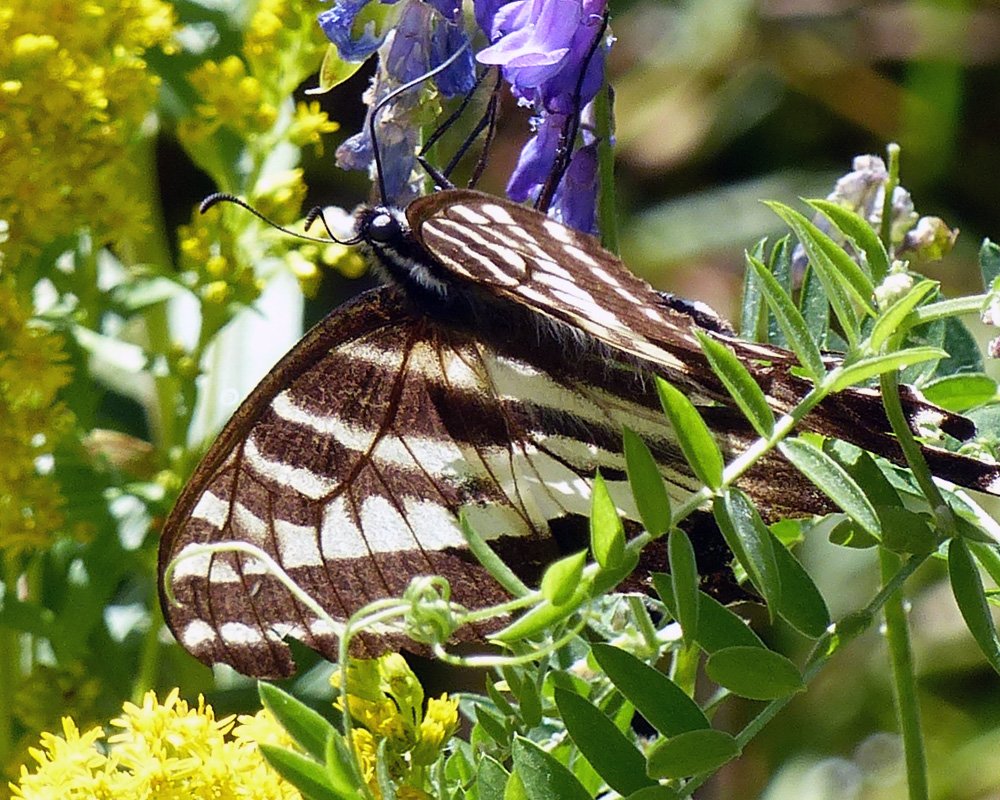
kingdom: Animalia
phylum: Arthropoda
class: Insecta
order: Lepidoptera
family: Papilionidae
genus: Pterourus
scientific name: Pterourus eurymedon
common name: Pale Swallowtail
